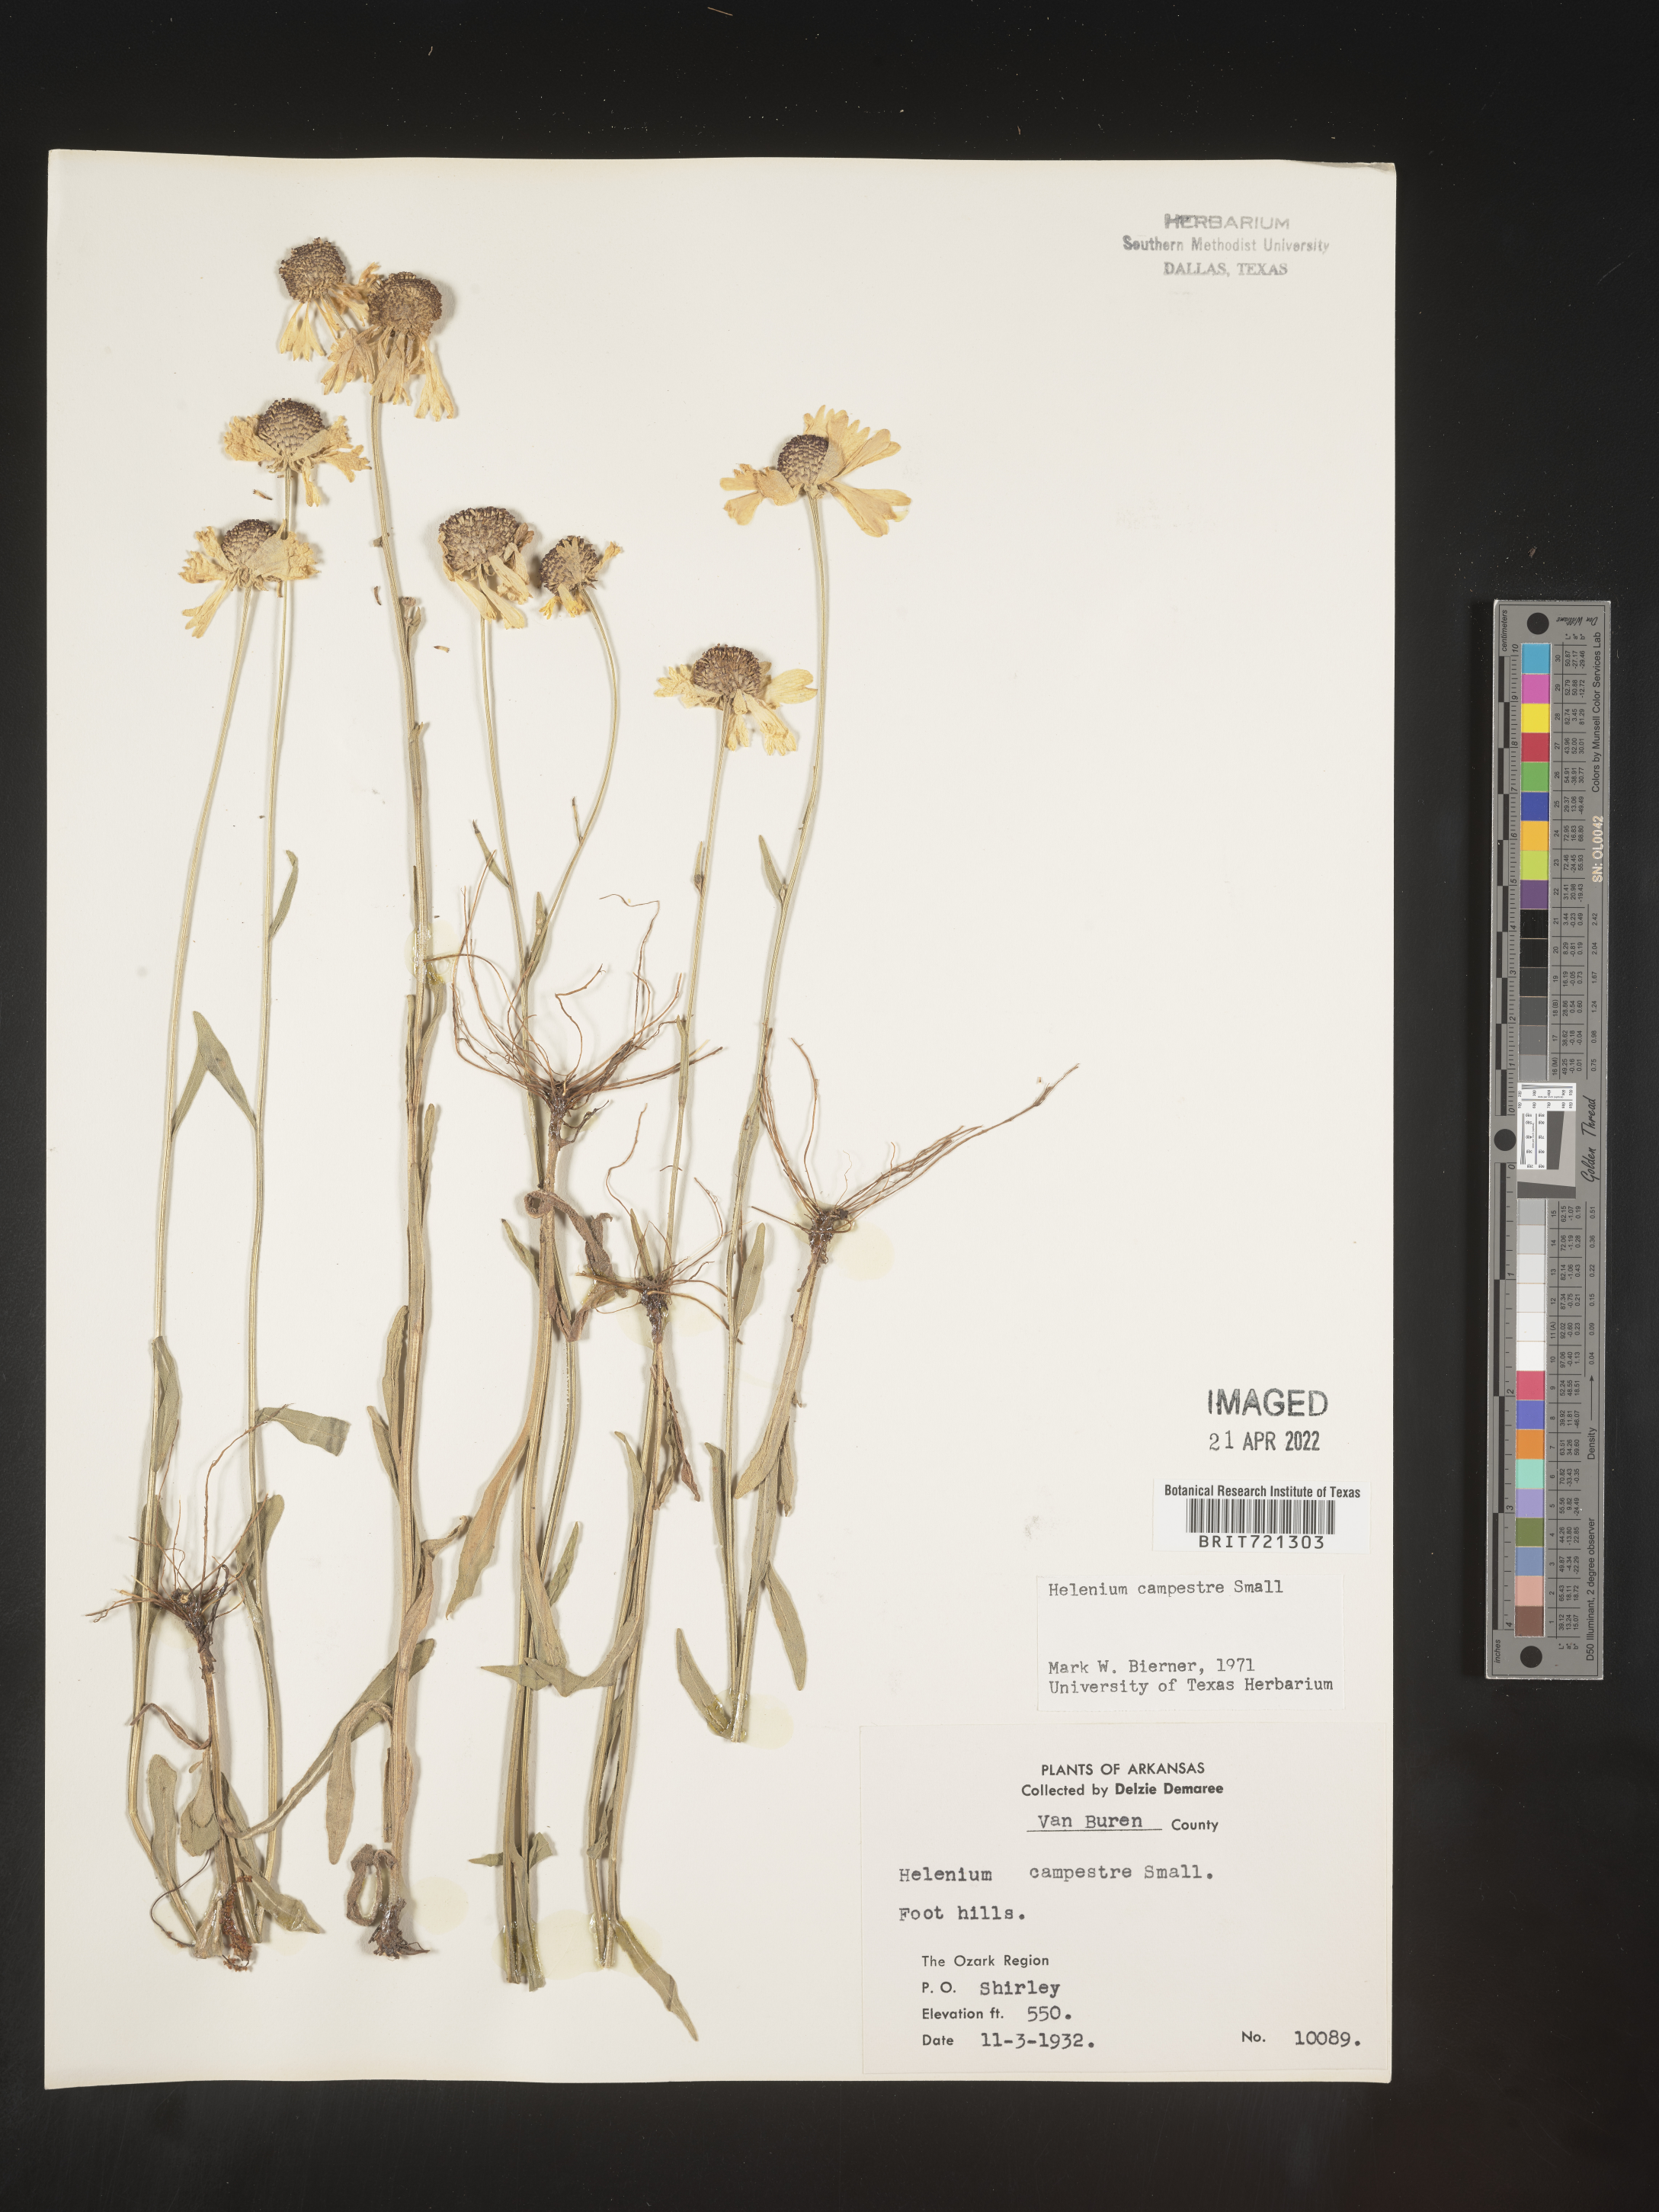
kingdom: Plantae
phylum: Tracheophyta
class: Magnoliopsida
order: Asterales
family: Asteraceae
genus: Helenium
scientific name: Helenium campestre
